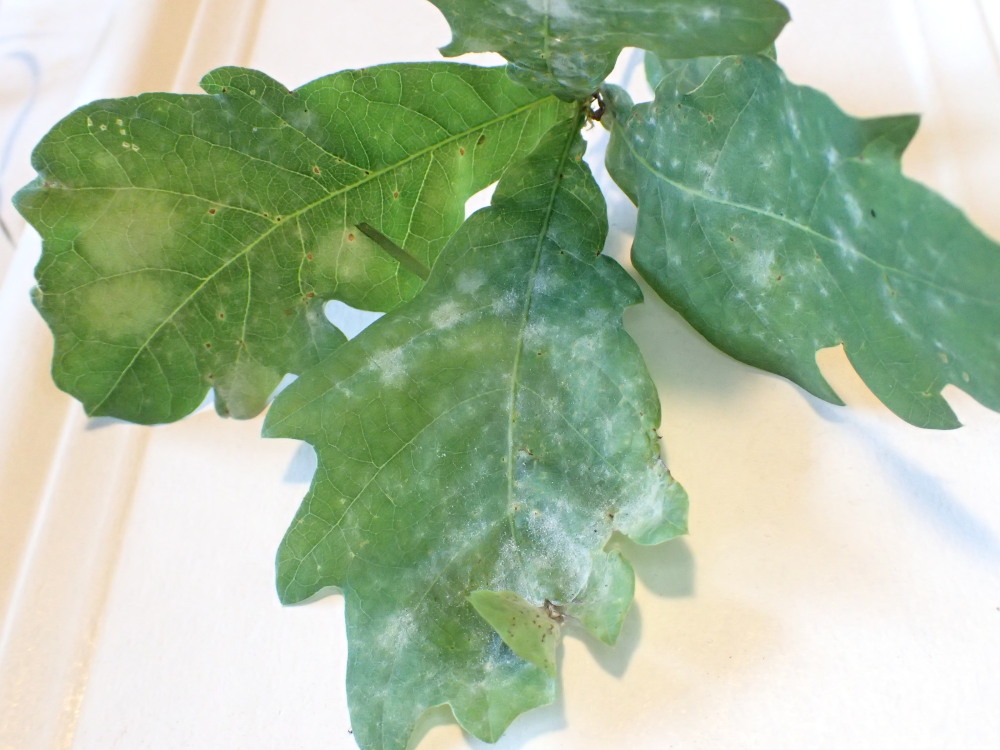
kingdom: Fungi
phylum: Ascomycota
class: Leotiomycetes
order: Helotiales
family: Erysiphaceae
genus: Erysiphe
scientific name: Erysiphe alphitoides
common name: ege-meldug
